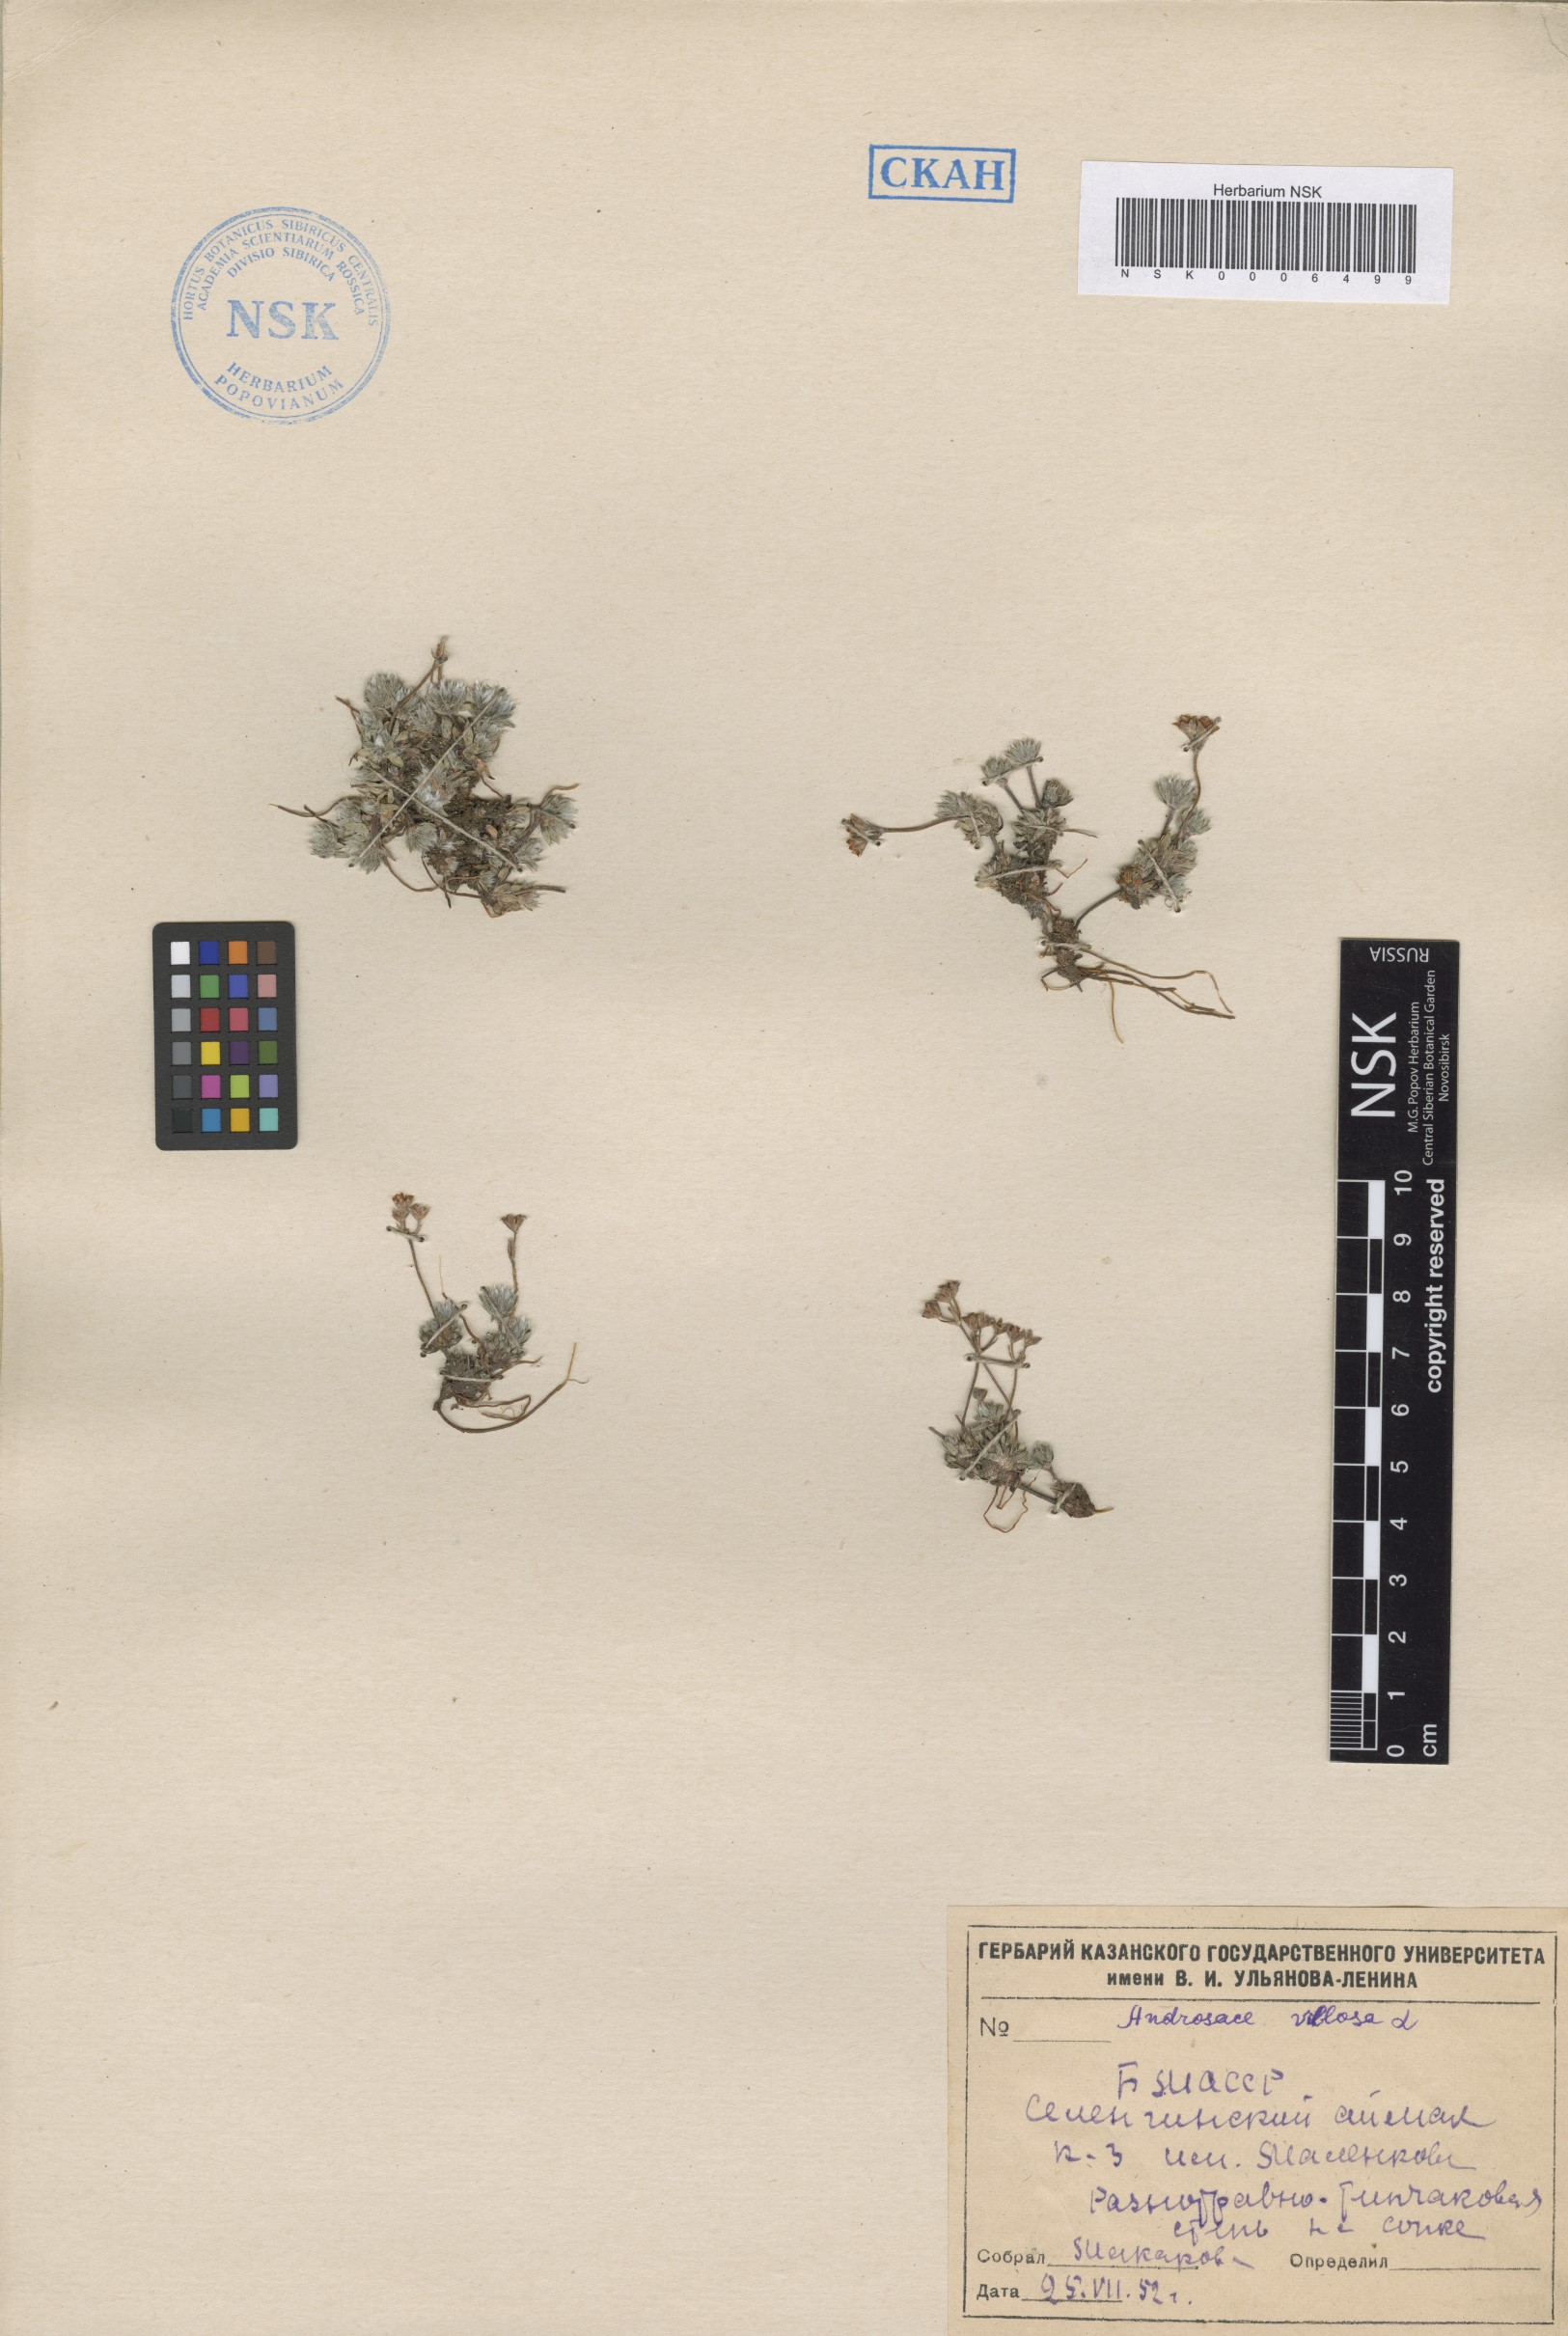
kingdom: Plantae
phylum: Tracheophyta
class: Magnoliopsida
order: Ericales
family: Primulaceae
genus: Androsace
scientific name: Androsace incana
